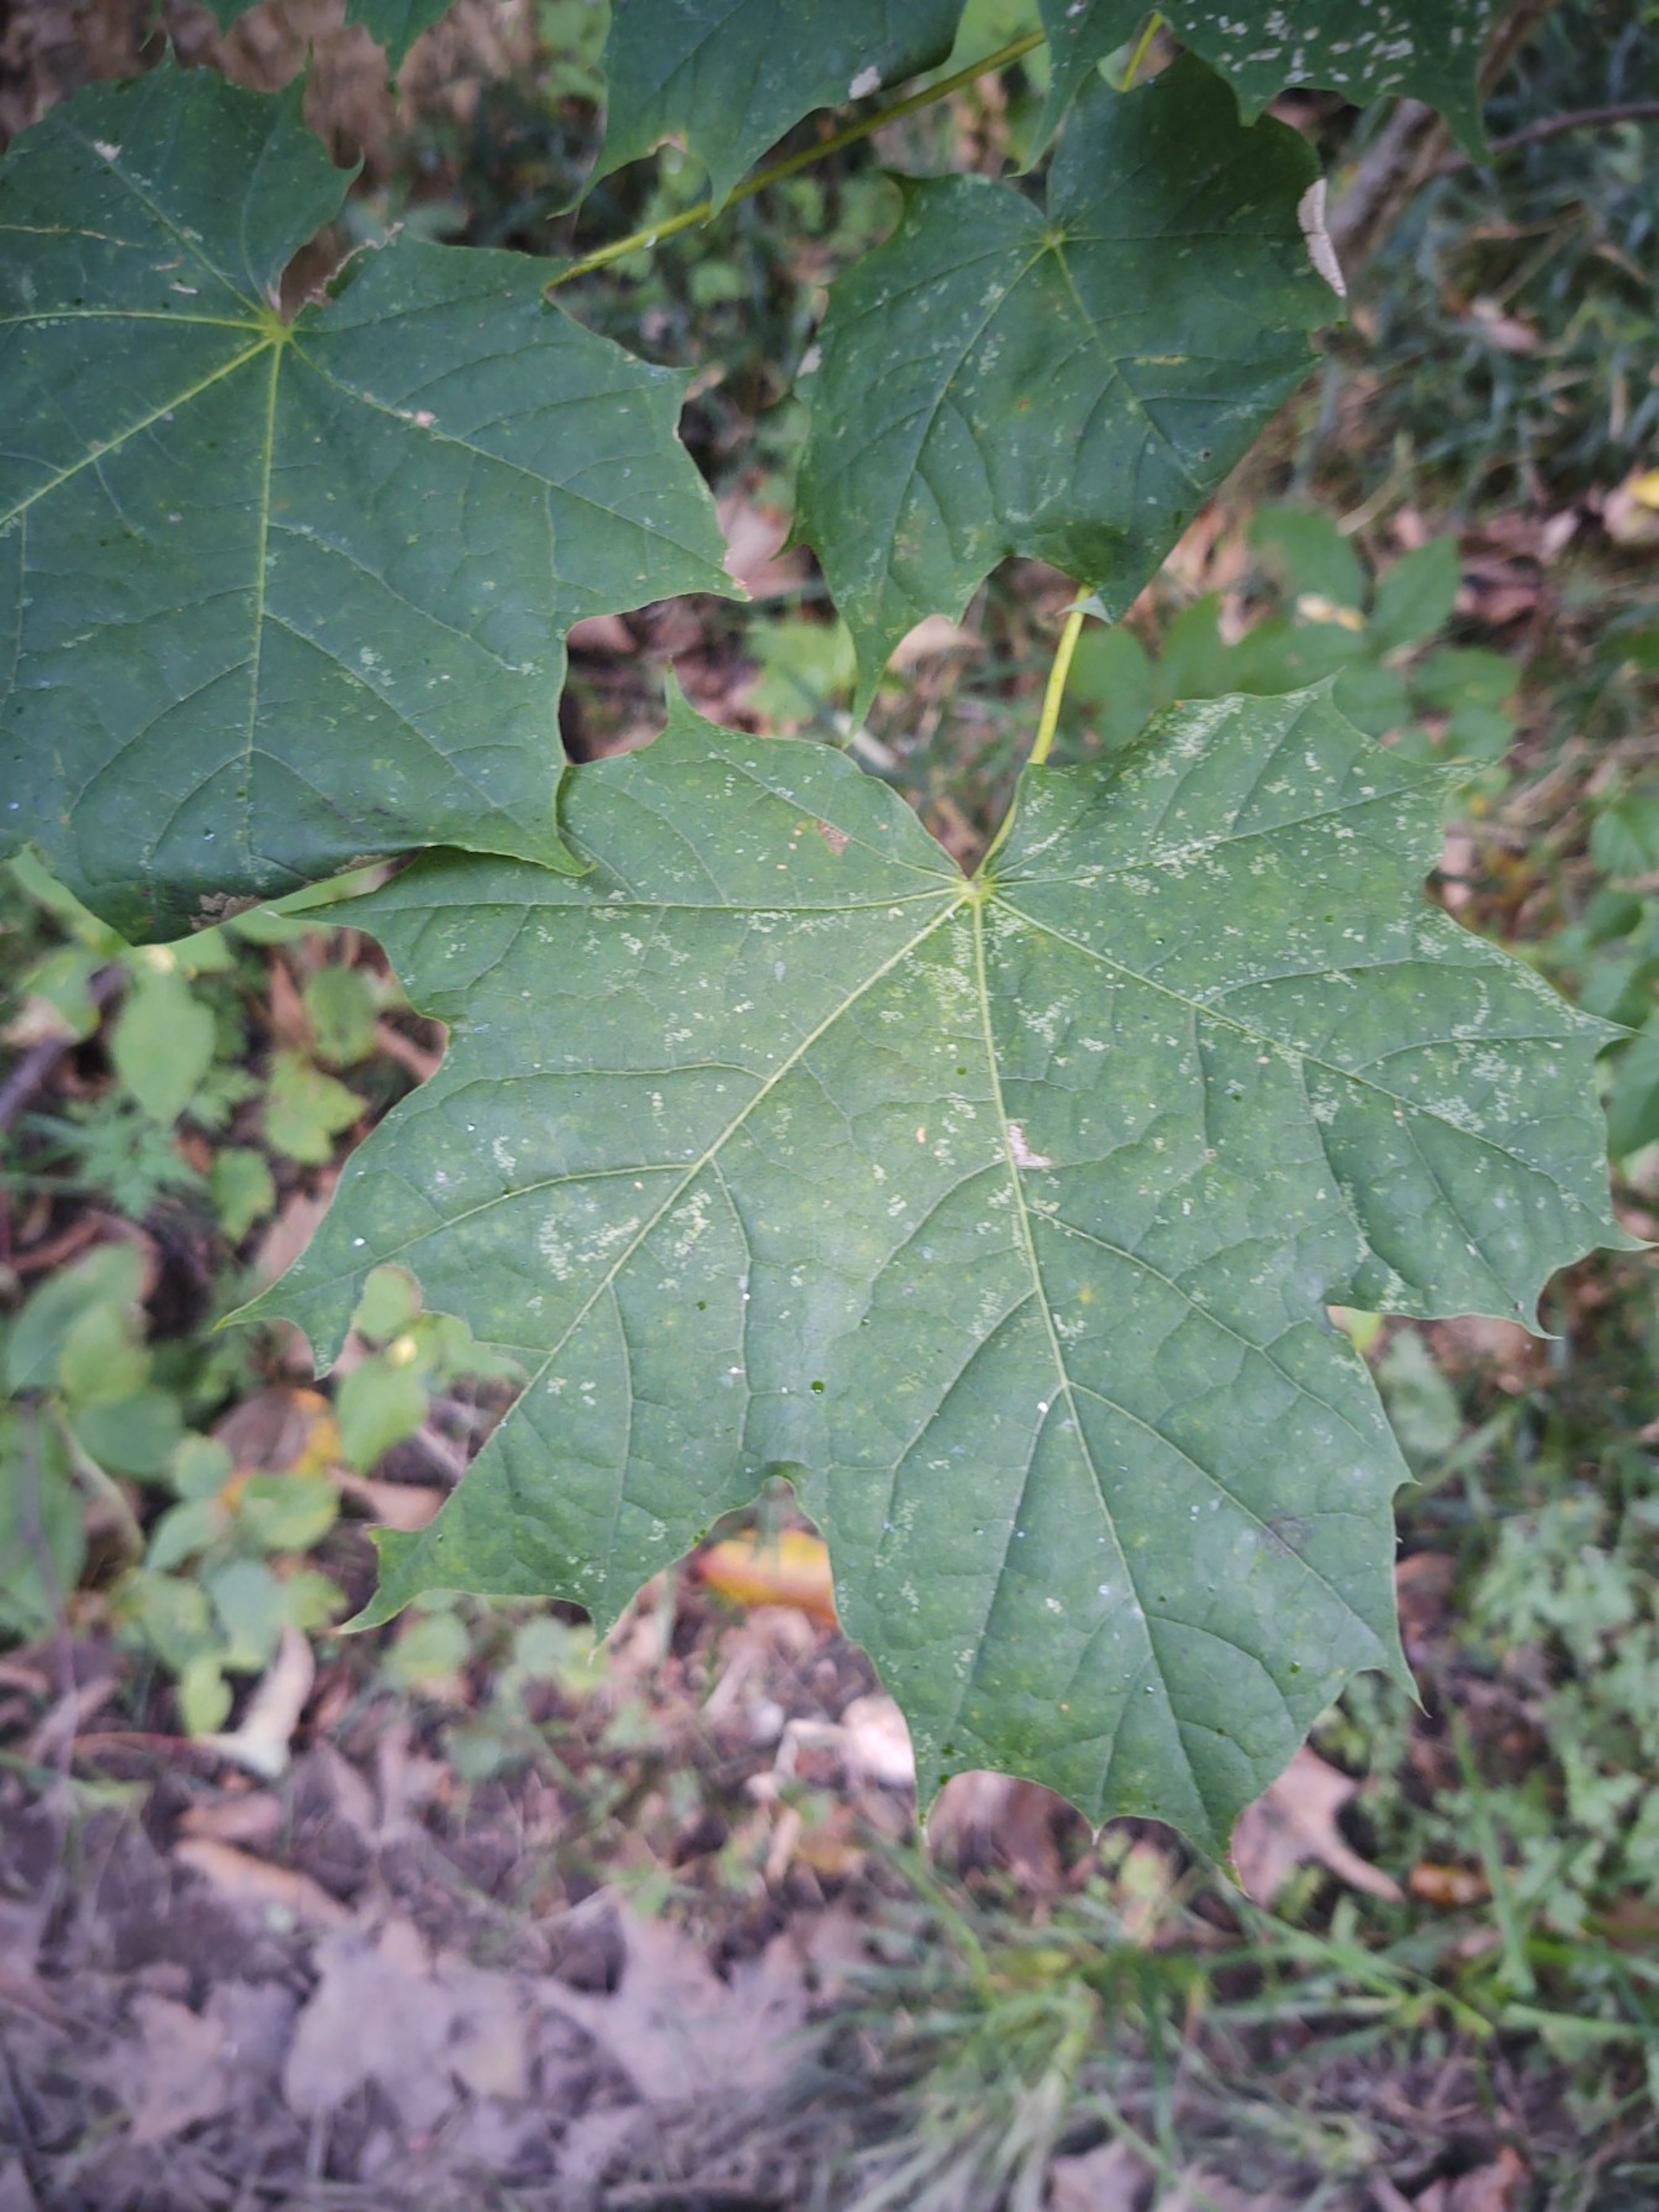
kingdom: Plantae
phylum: Tracheophyta
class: Magnoliopsida
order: Sapindales
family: Sapindaceae
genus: Acer
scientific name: Acer platanoides
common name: Spids-løn
